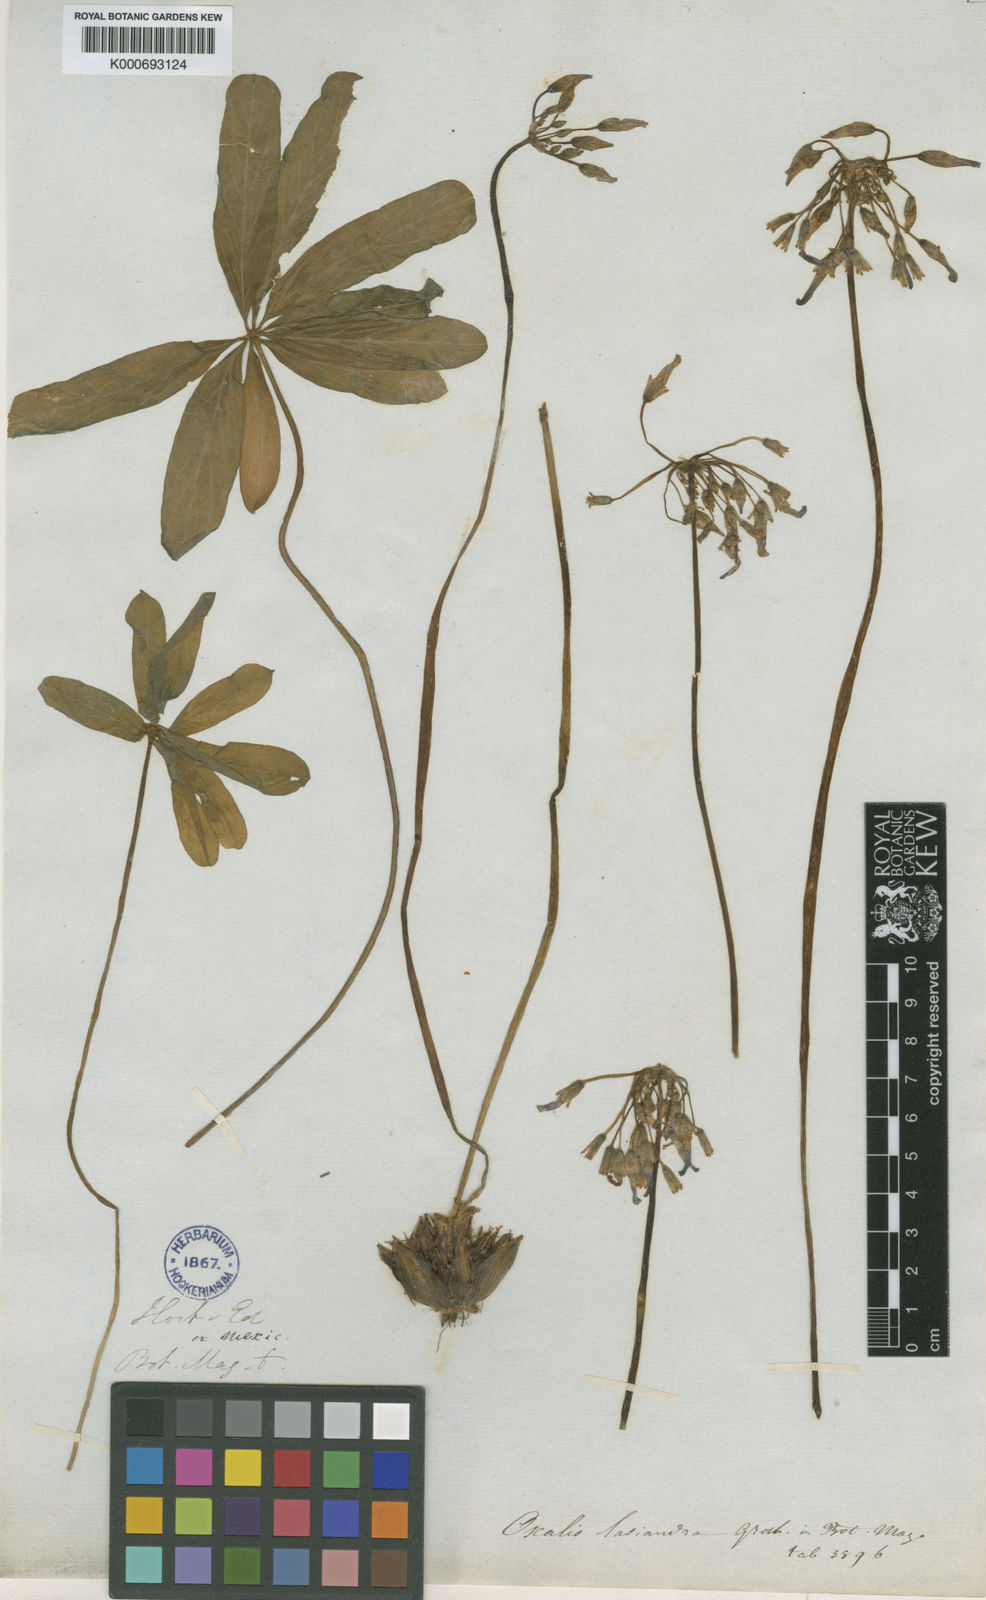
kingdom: Plantae
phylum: Tracheophyta
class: Magnoliopsida
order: Oxalidales
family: Oxalidaceae
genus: Oxalis
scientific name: Oxalis articulata
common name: Pink-sorrel
